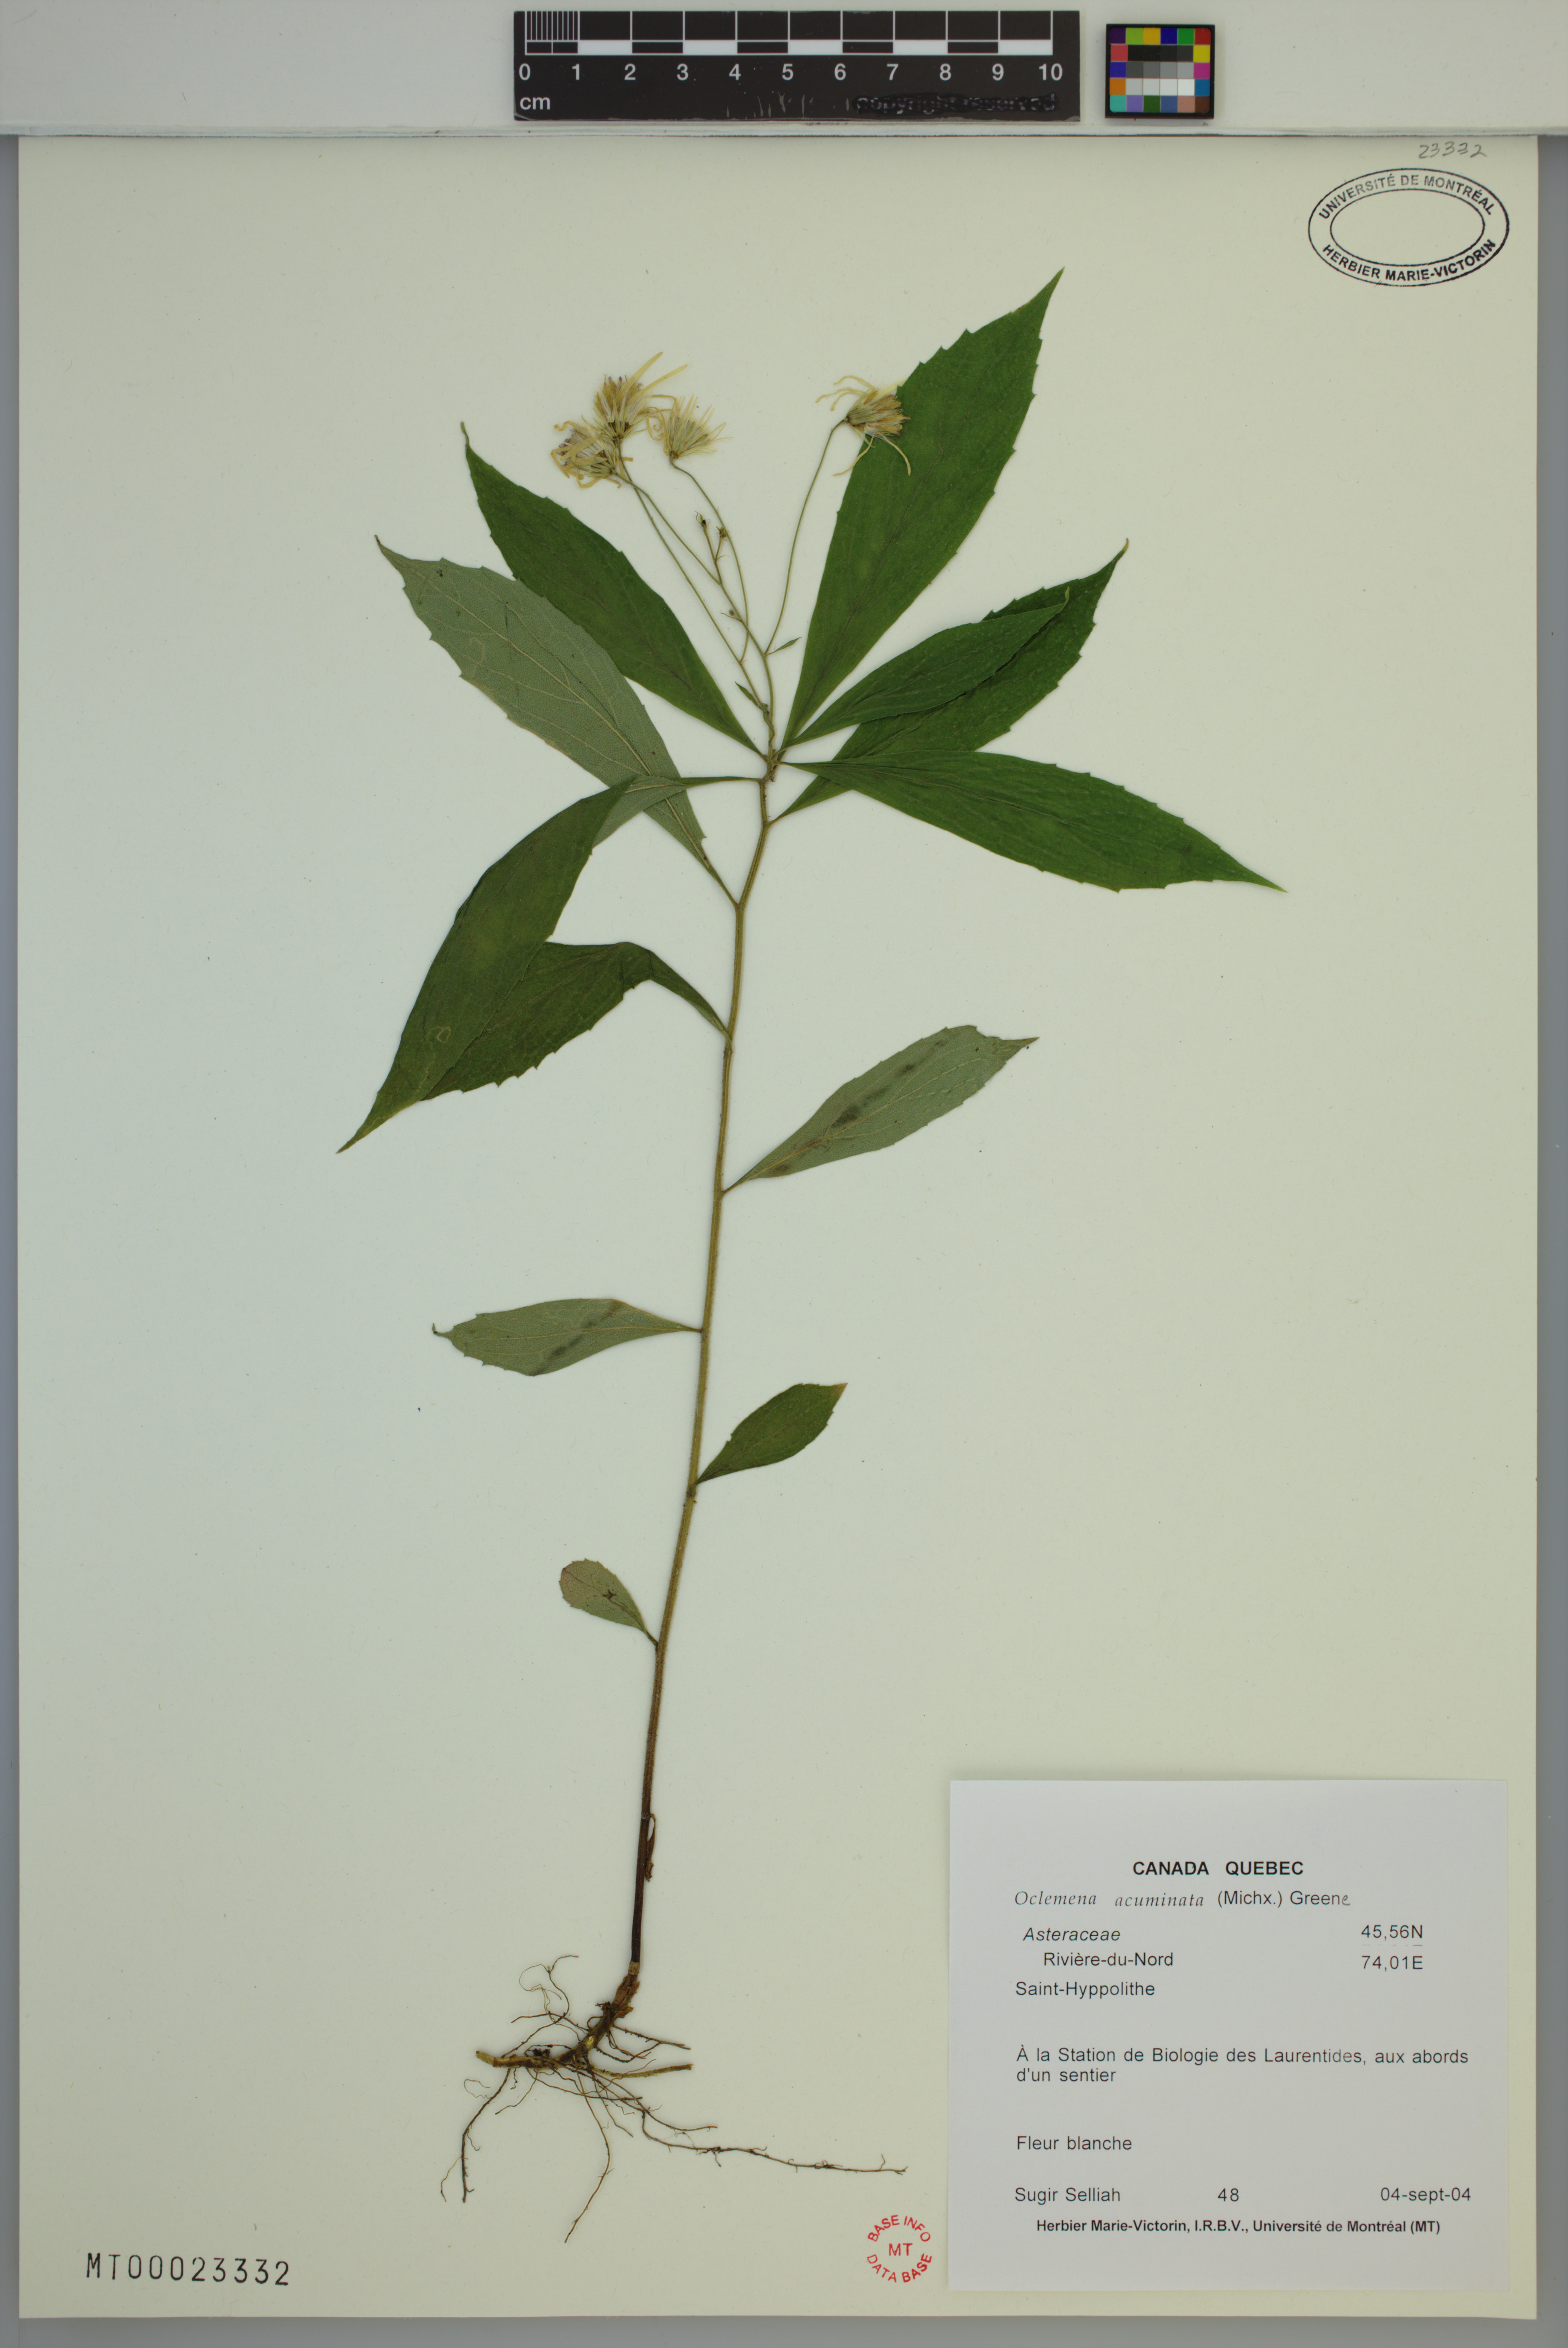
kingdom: Plantae
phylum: Tracheophyta
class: Magnoliopsida
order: Asterales
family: Asteraceae
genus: Oclemena
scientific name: Oclemena acuminata
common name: Mountain aster
